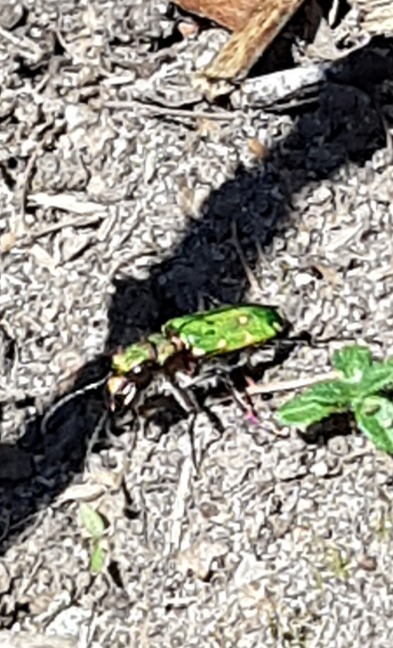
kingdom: Animalia
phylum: Arthropoda
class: Insecta
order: Coleoptera
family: Carabidae
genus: Cicindela
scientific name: Cicindela campestris
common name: Grøn sandspringer
